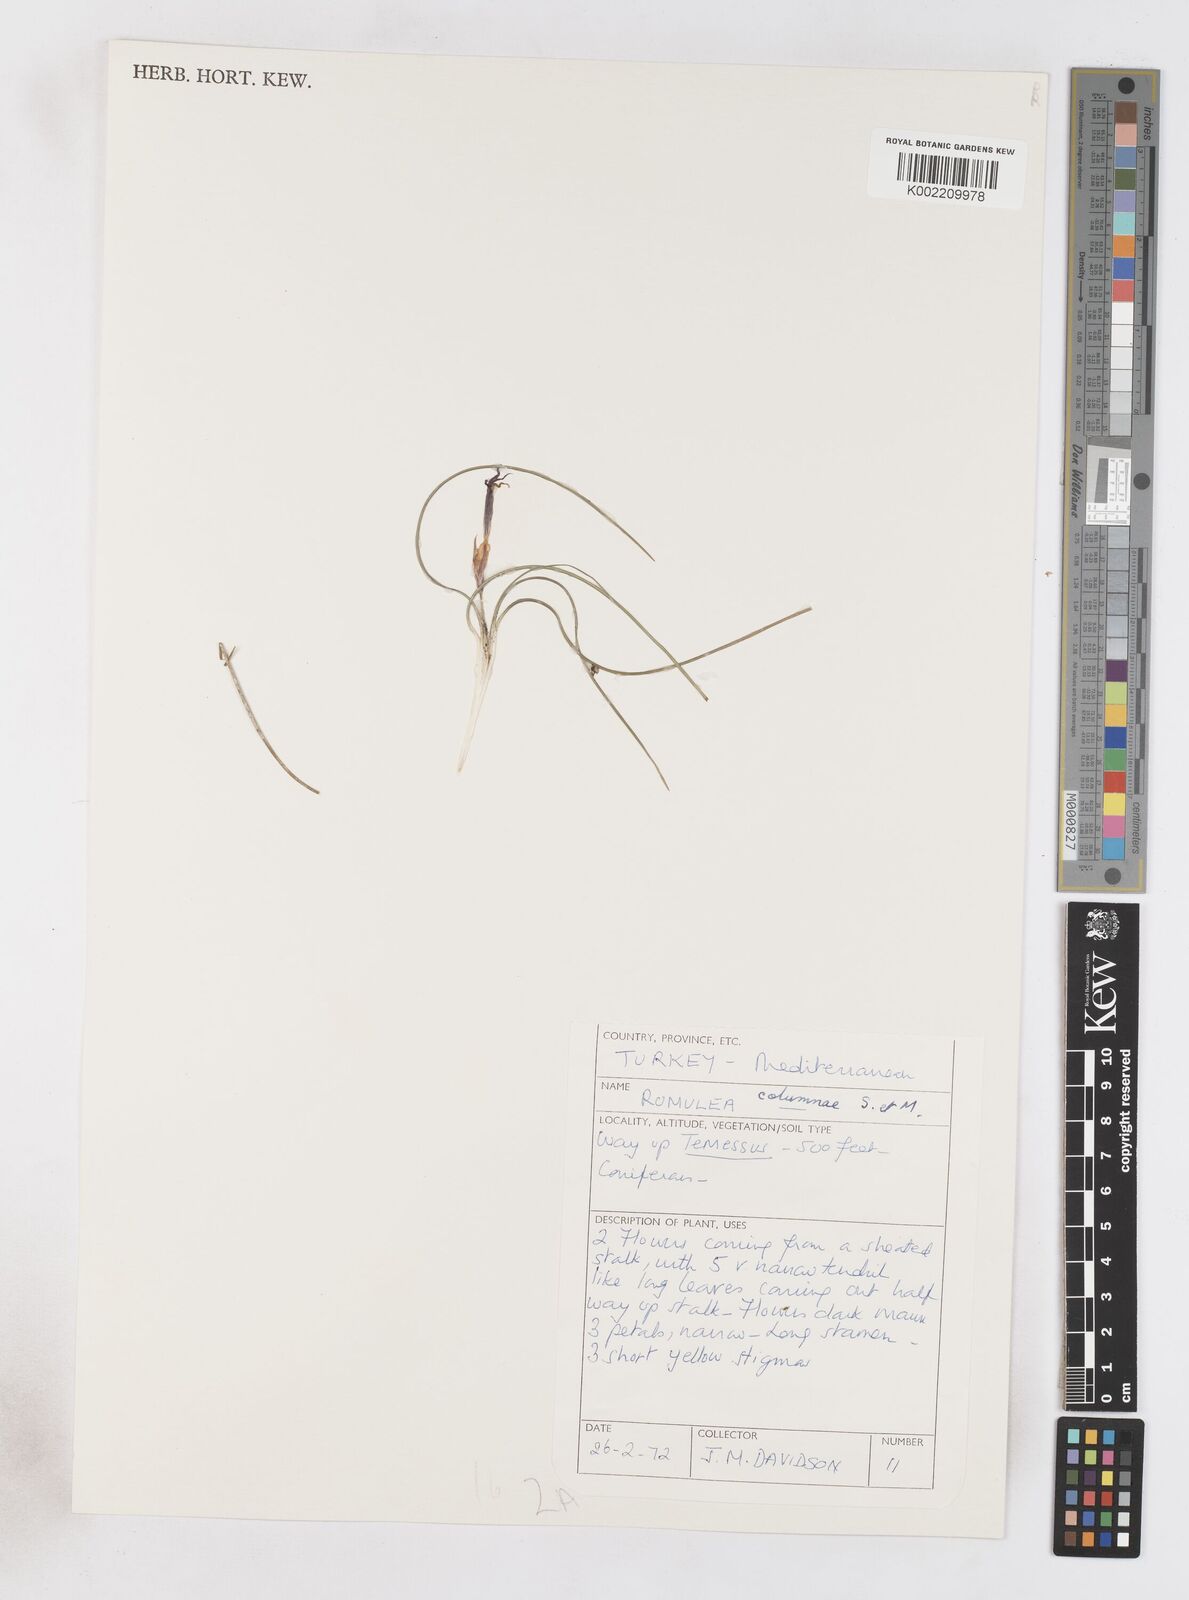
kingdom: Plantae
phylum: Tracheophyta
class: Liliopsida
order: Asparagales
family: Iridaceae
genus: Romulea
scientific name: Romulea tempskyana
